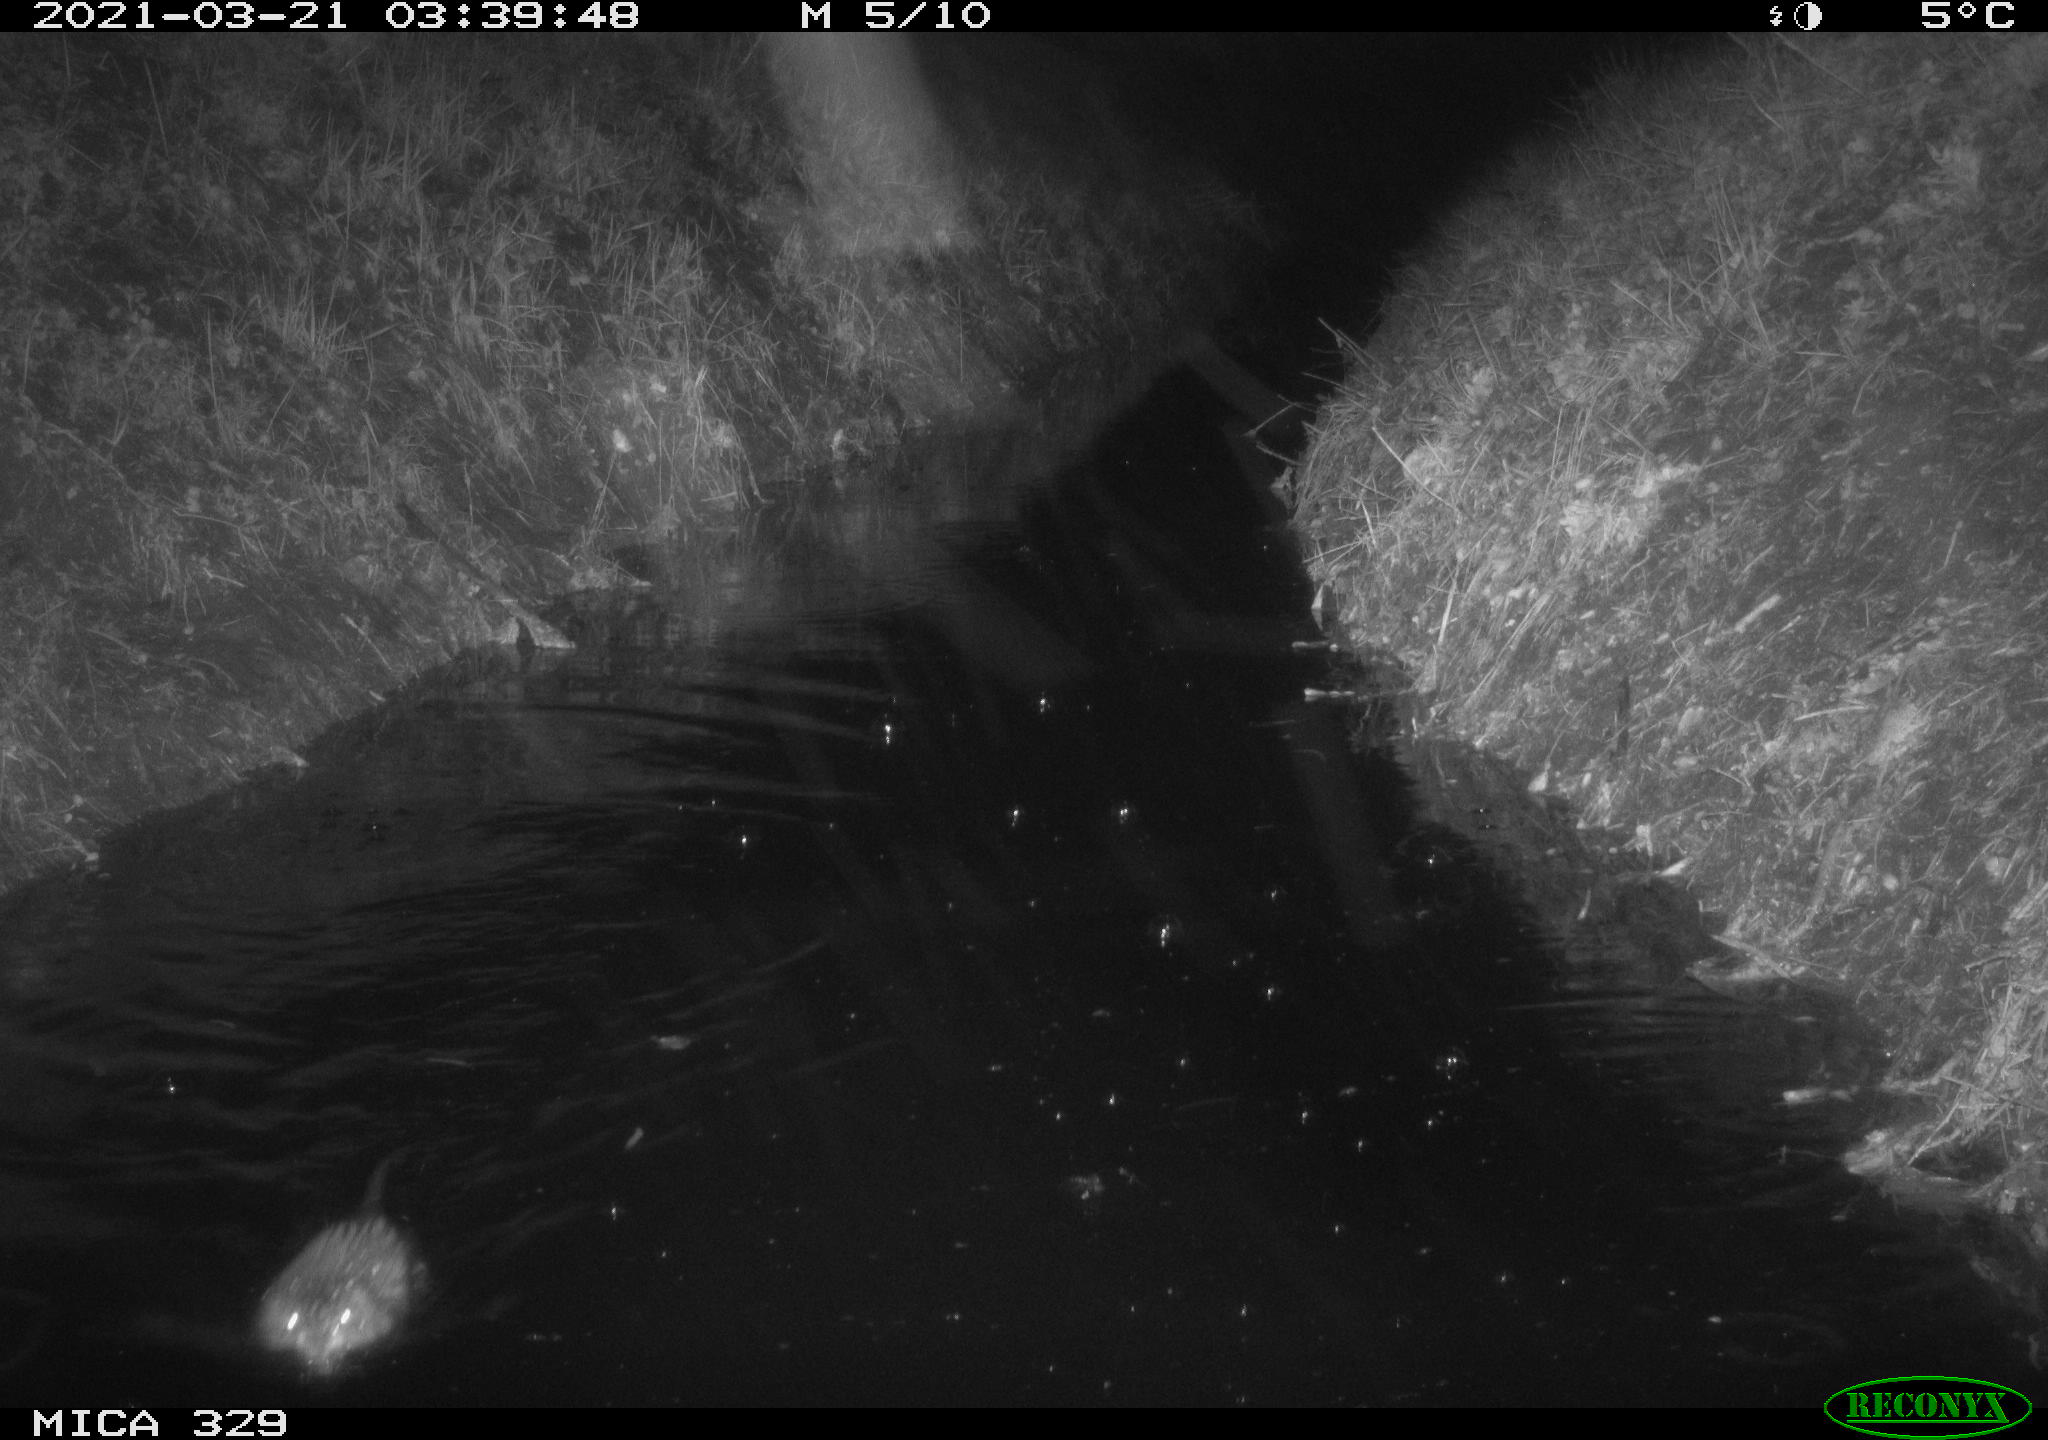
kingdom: Animalia
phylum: Chordata
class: Mammalia
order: Rodentia
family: Cricetidae
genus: Ondatra
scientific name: Ondatra zibethicus
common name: Muskrat
